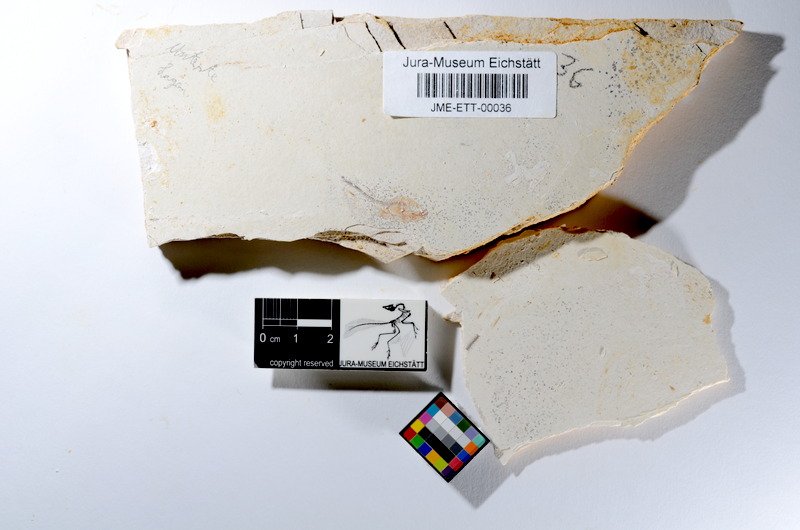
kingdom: Animalia
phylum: Chordata
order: Salmoniformes
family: Orthogonikleithridae
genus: Orthogonikleithrus
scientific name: Orthogonikleithrus hoelli
